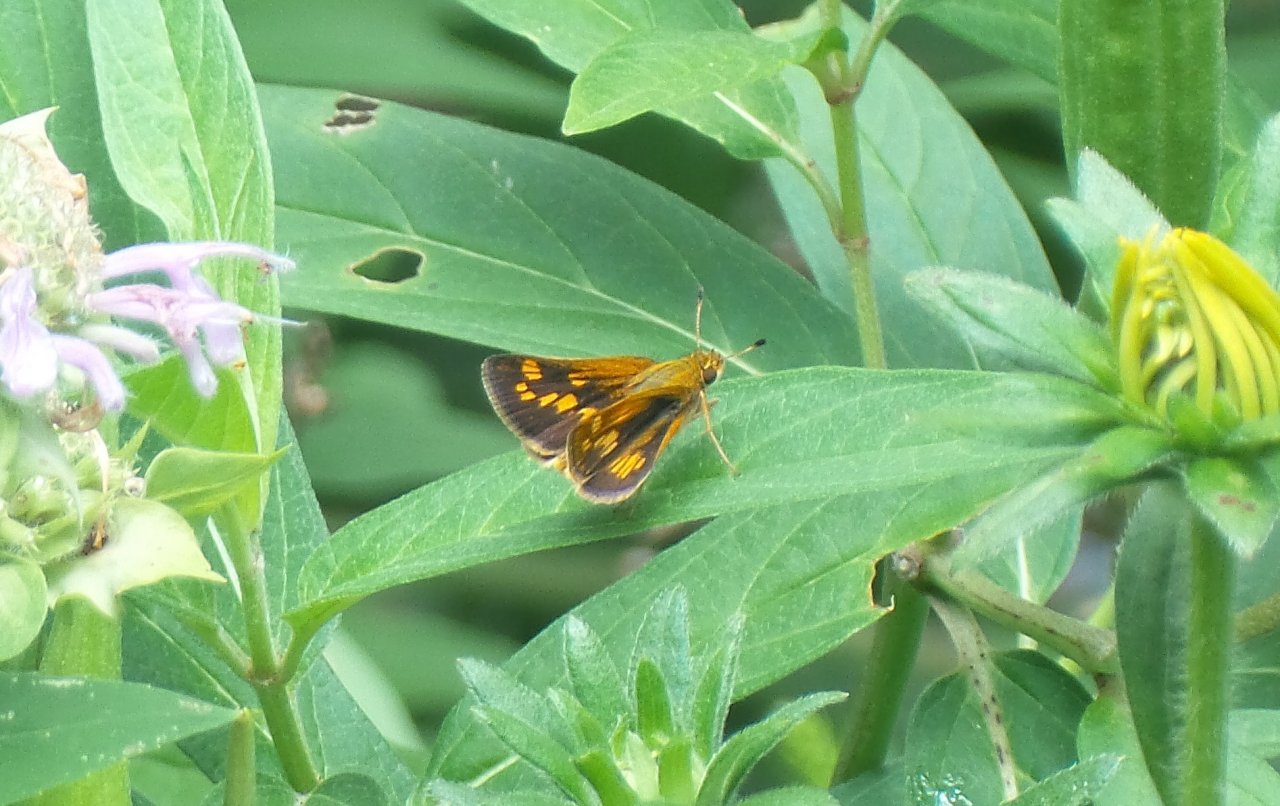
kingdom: Animalia
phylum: Arthropoda
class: Insecta
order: Lepidoptera
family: Hesperiidae
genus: Polites
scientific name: Polites coras
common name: Peck's Skipper
